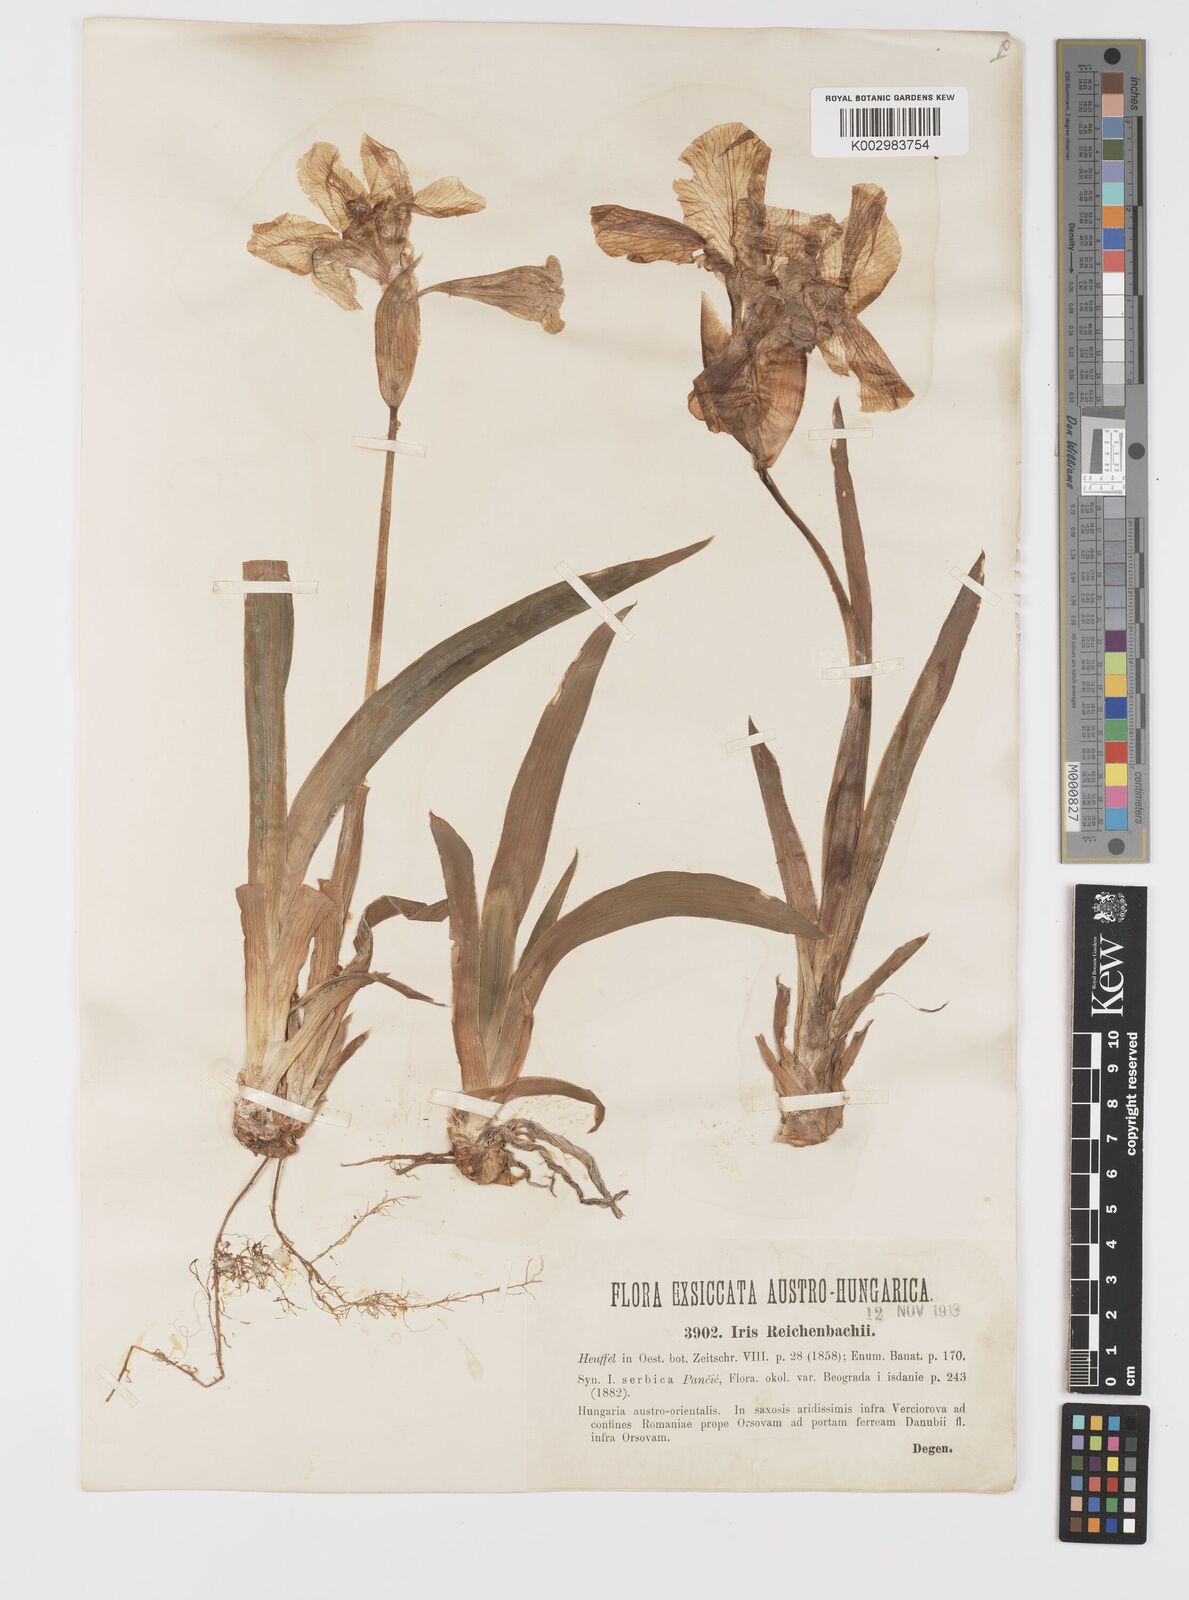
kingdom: Plantae
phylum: Tracheophyta
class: Liliopsida
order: Asparagales
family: Iridaceae
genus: Iris
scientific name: Iris reichenbachii
